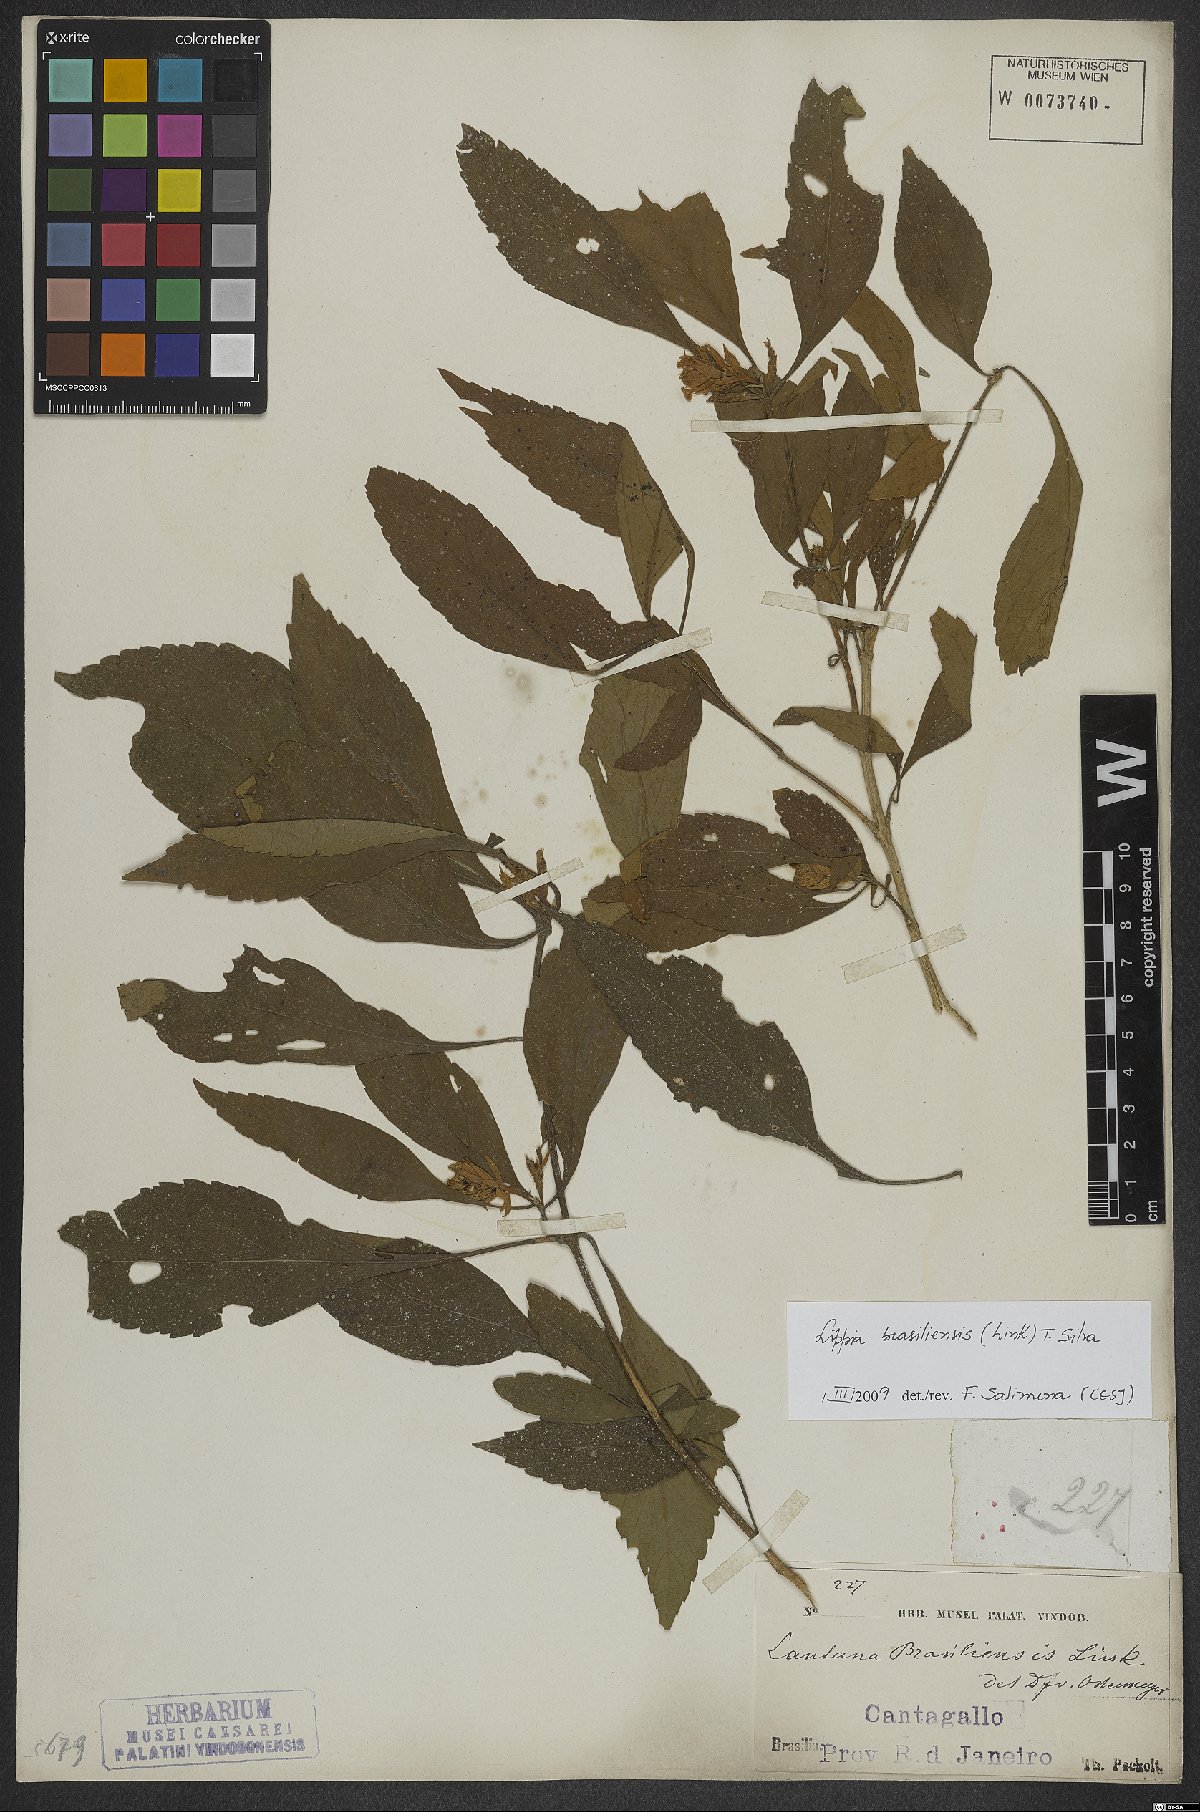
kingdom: Plantae
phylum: Tracheophyta
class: Magnoliopsida
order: Lamiales
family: Verbenaceae
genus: Lippia
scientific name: Lippia brasiliensis
